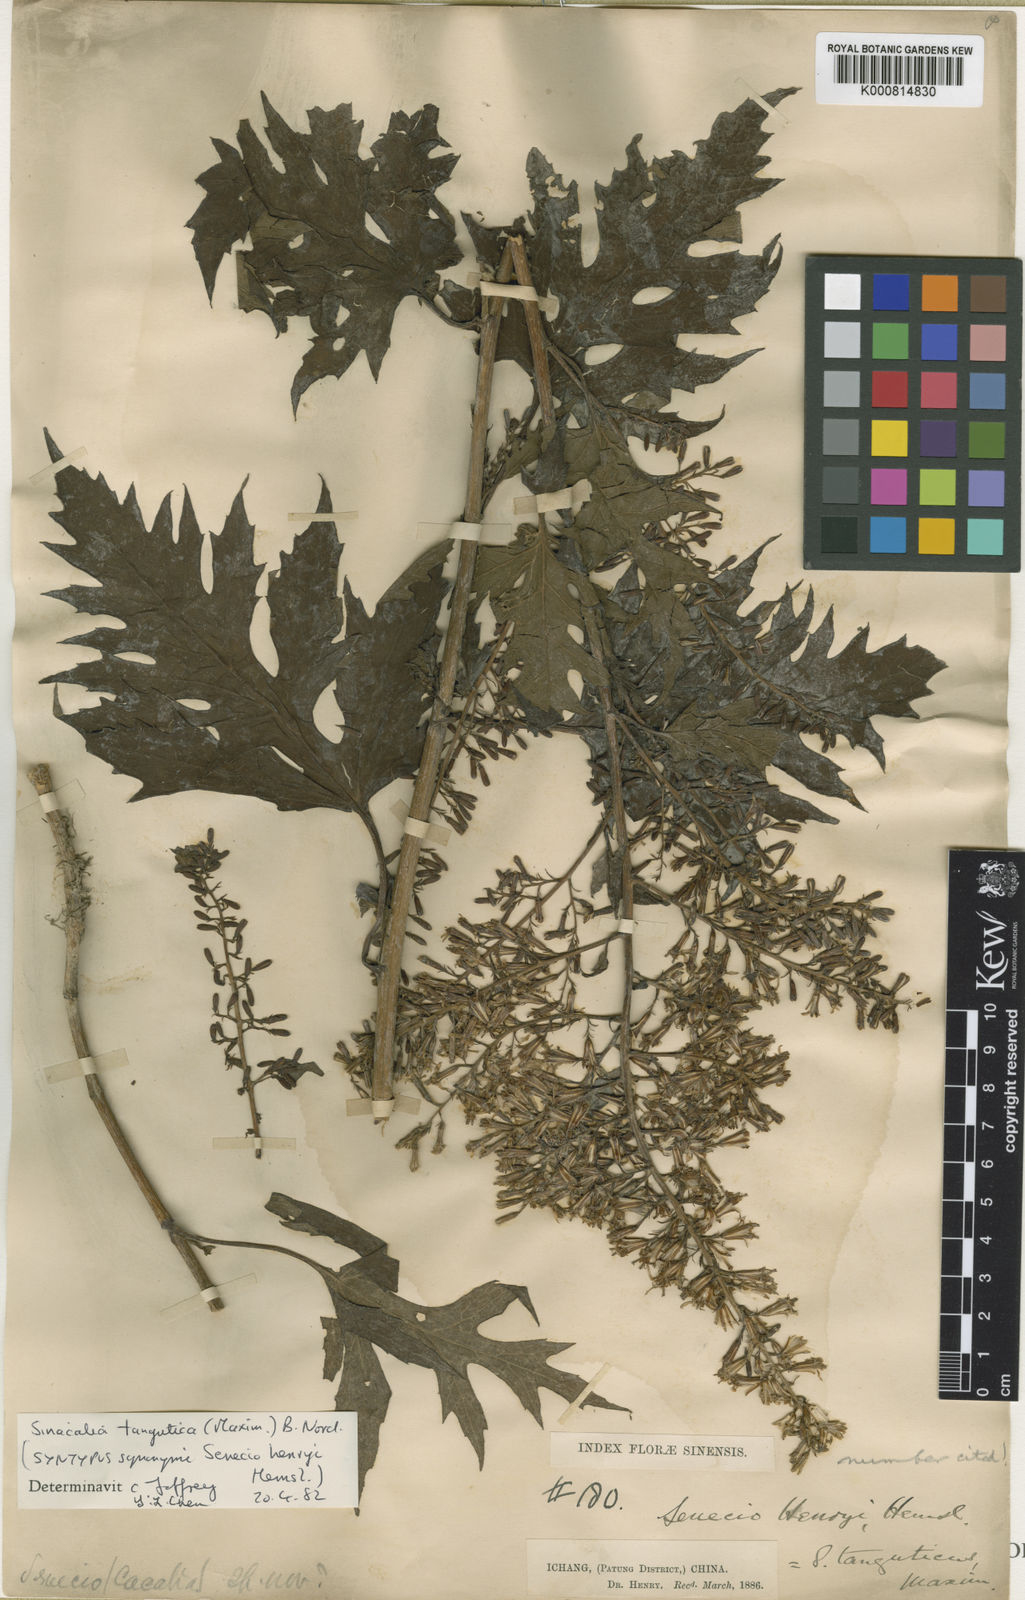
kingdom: Plantae
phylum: Tracheophyta
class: Magnoliopsida
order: Asterales
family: Asteraceae
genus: Sinacalia
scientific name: Sinacalia tangutica
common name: Chinese ragwort
